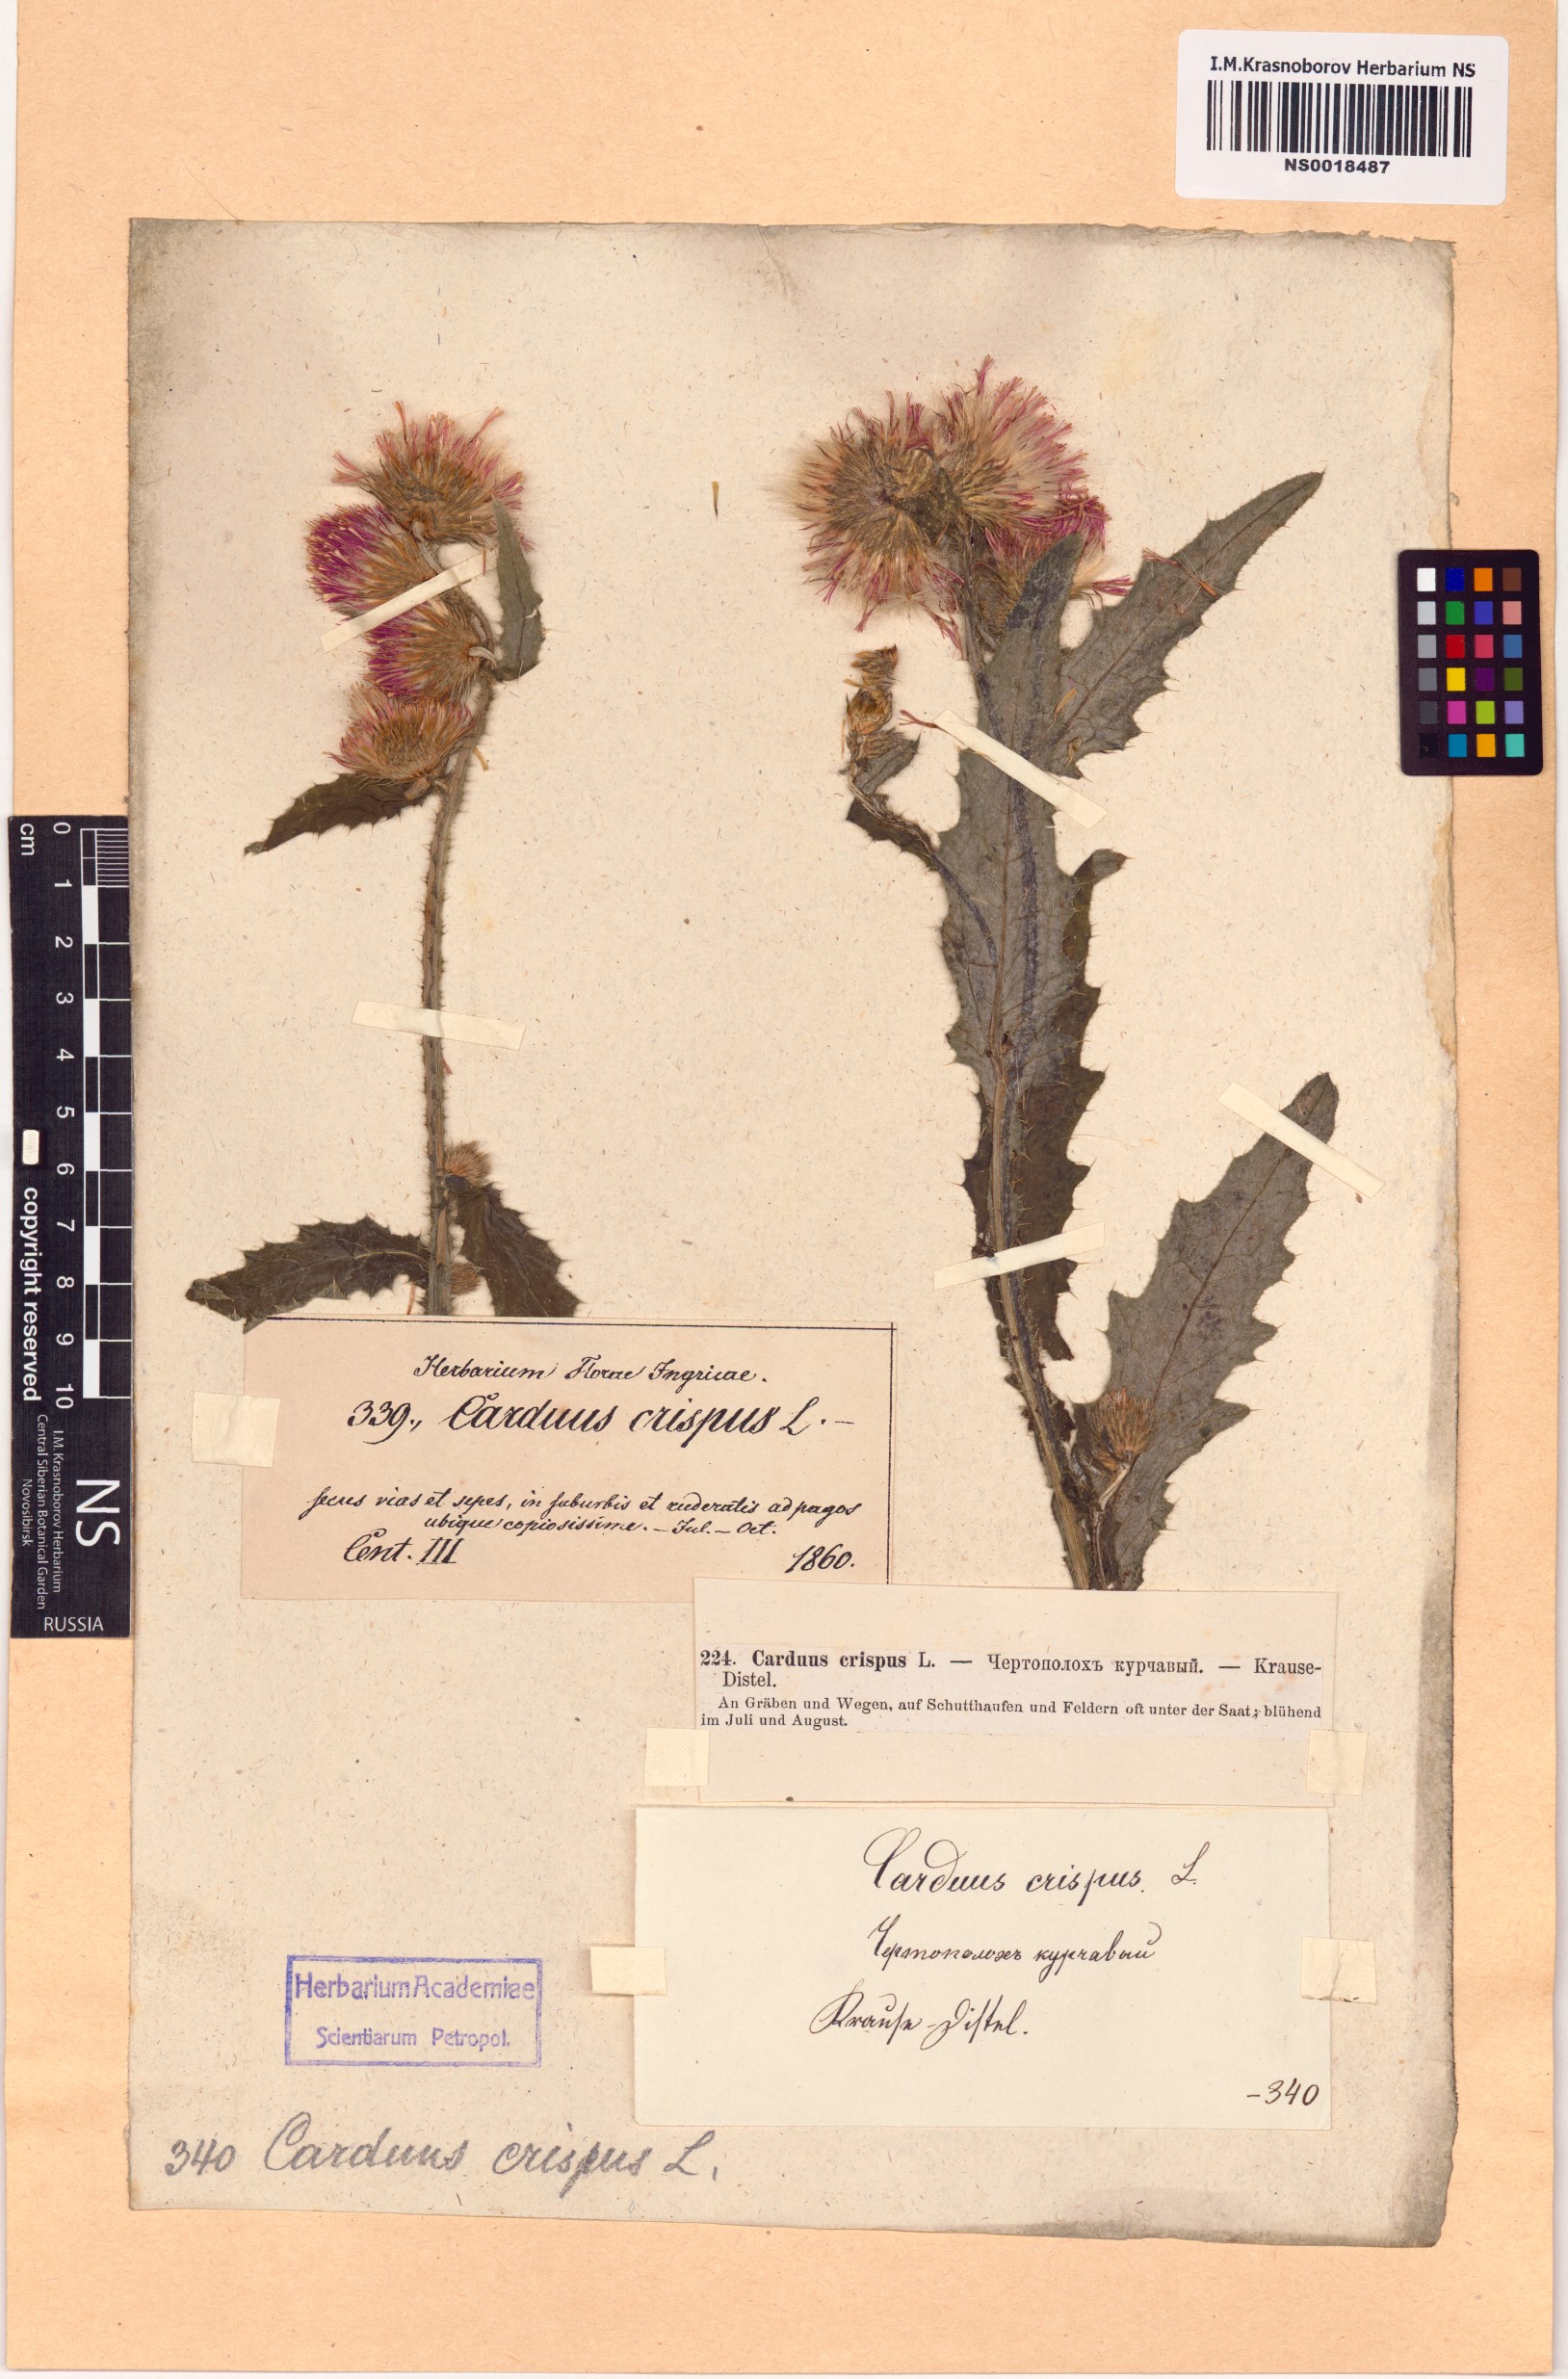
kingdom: Plantae
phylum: Tracheophyta
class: Magnoliopsida
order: Asterales
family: Asteraceae
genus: Carduus
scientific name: Carduus crispus
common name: Welted thistle
